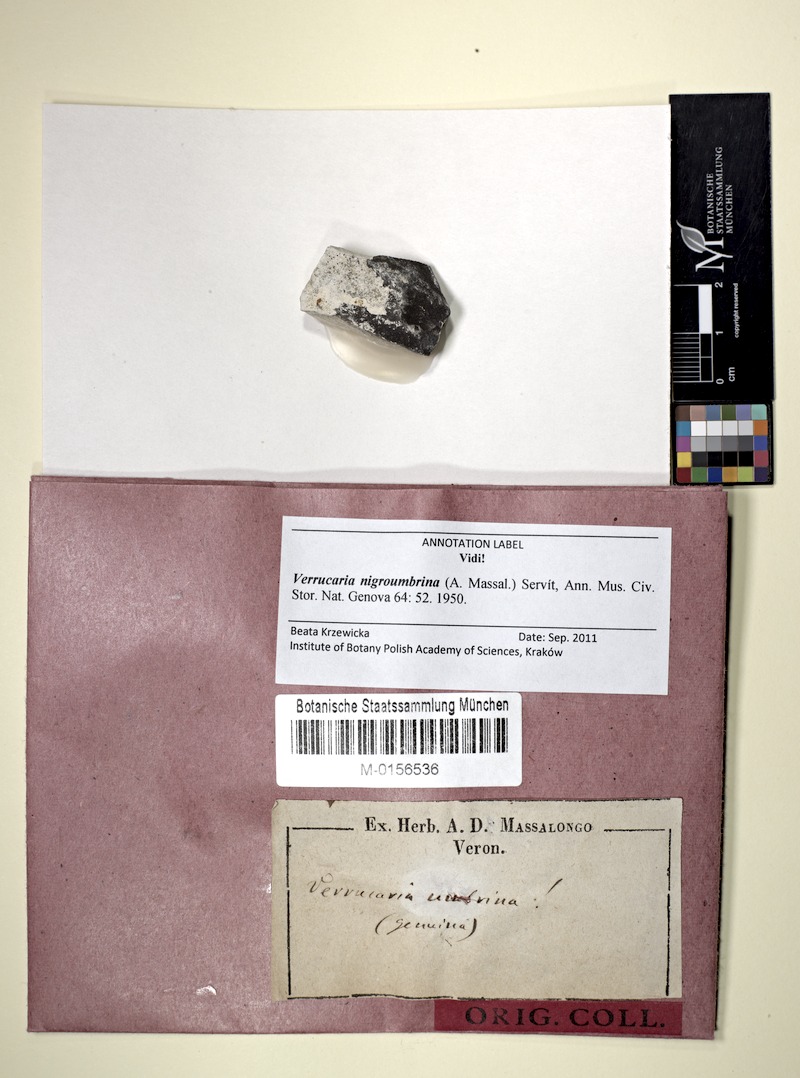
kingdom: Fungi
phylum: Ascomycota
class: Eurotiomycetes
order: Verrucariales
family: Verrucariaceae
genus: Verrucaria
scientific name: Verrucaria nigroumbrina
